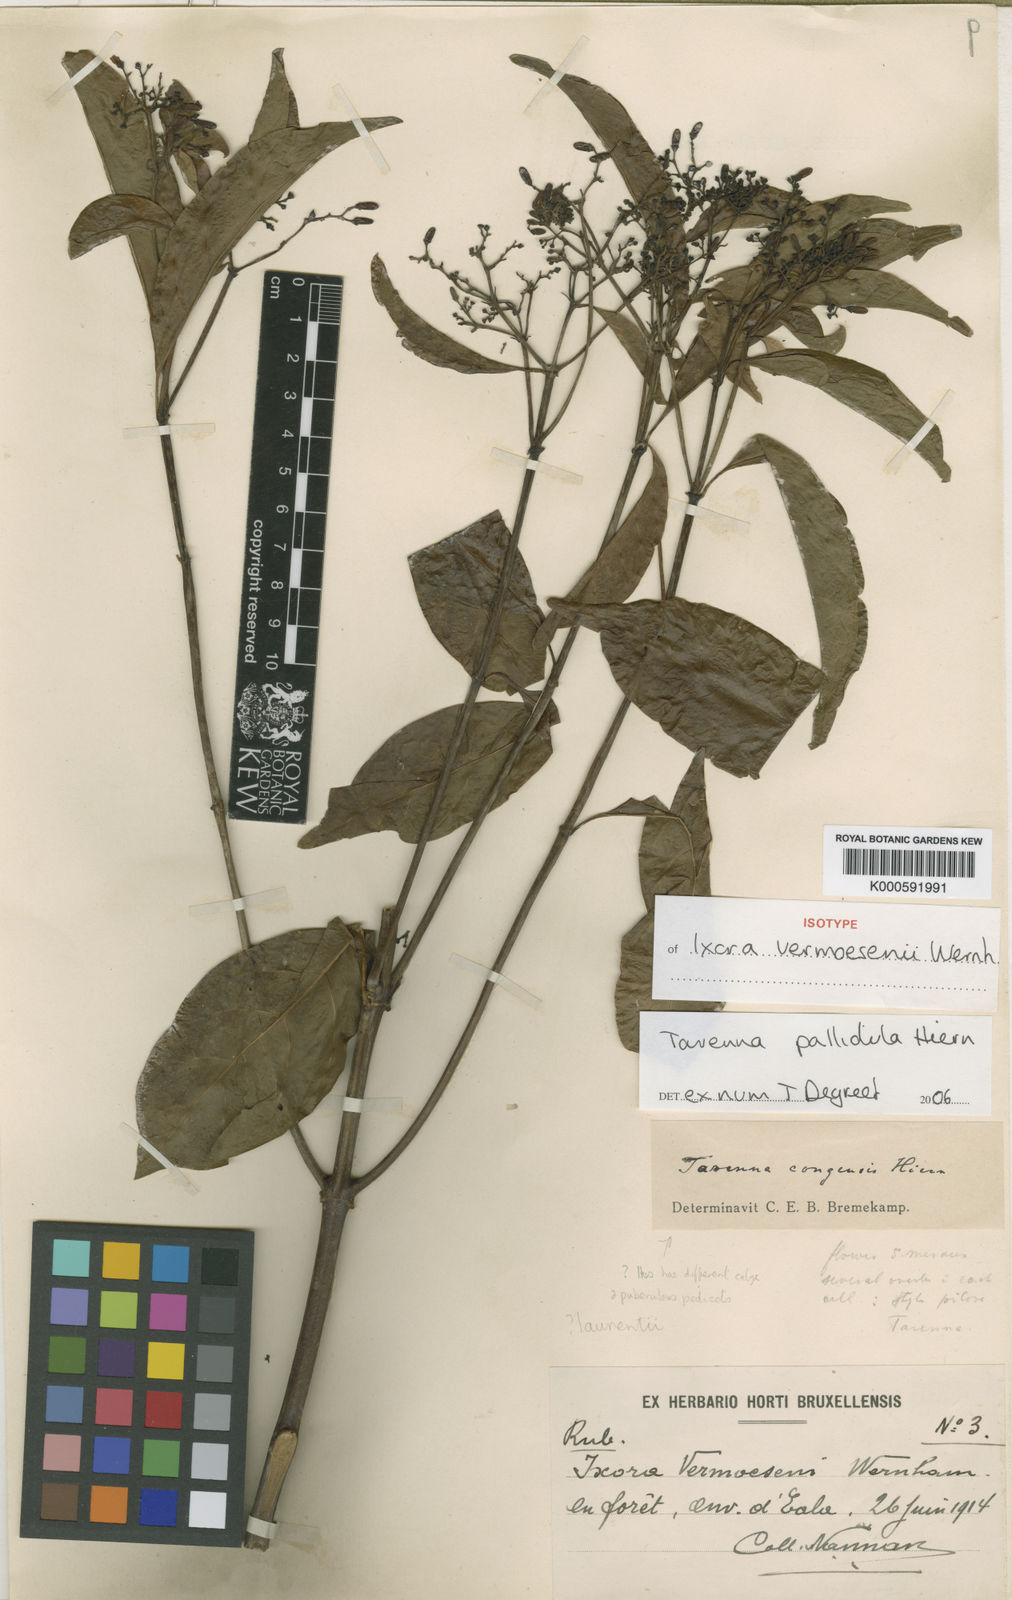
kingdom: Plantae
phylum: Tracheophyta
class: Magnoliopsida
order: Gentianales
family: Rubiaceae
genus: Tarenna
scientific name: Tarenna pallidula
